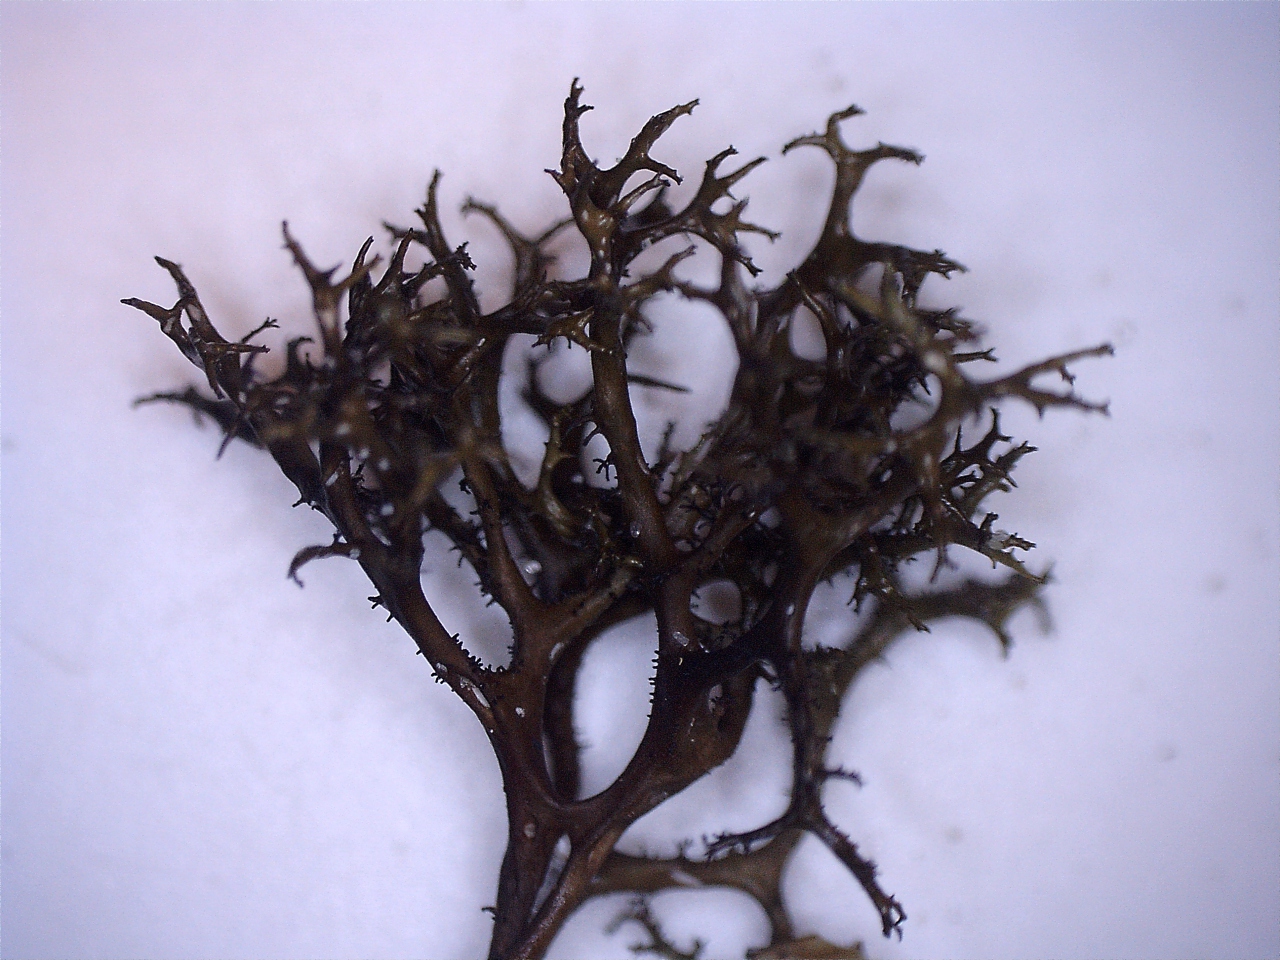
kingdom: Fungi
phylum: Ascomycota
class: Lecanoromycetes
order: Lecanorales
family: Parmeliaceae
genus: Cetraria
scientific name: Cetraria aculeata
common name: grubet tjørnelav
